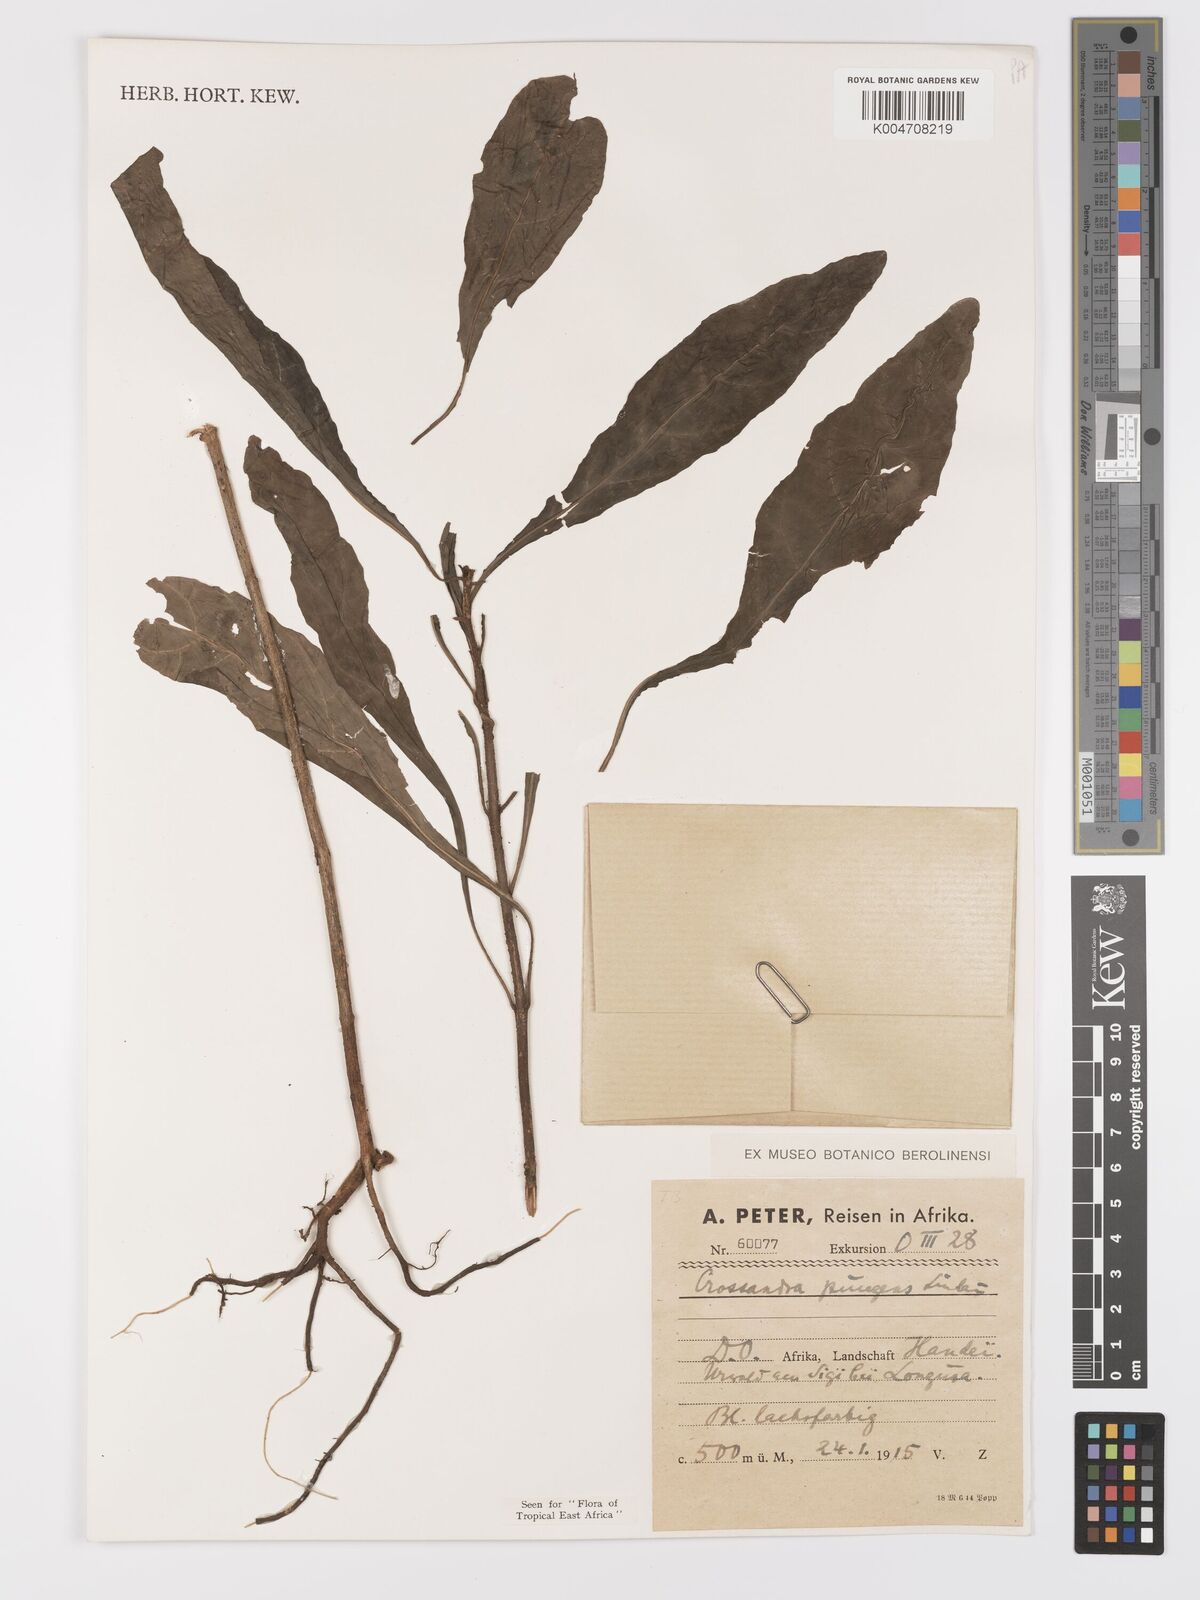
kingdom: Plantae
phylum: Tracheophyta
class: Magnoliopsida
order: Lamiales
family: Acanthaceae
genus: Crossandra
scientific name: Crossandra pungens
